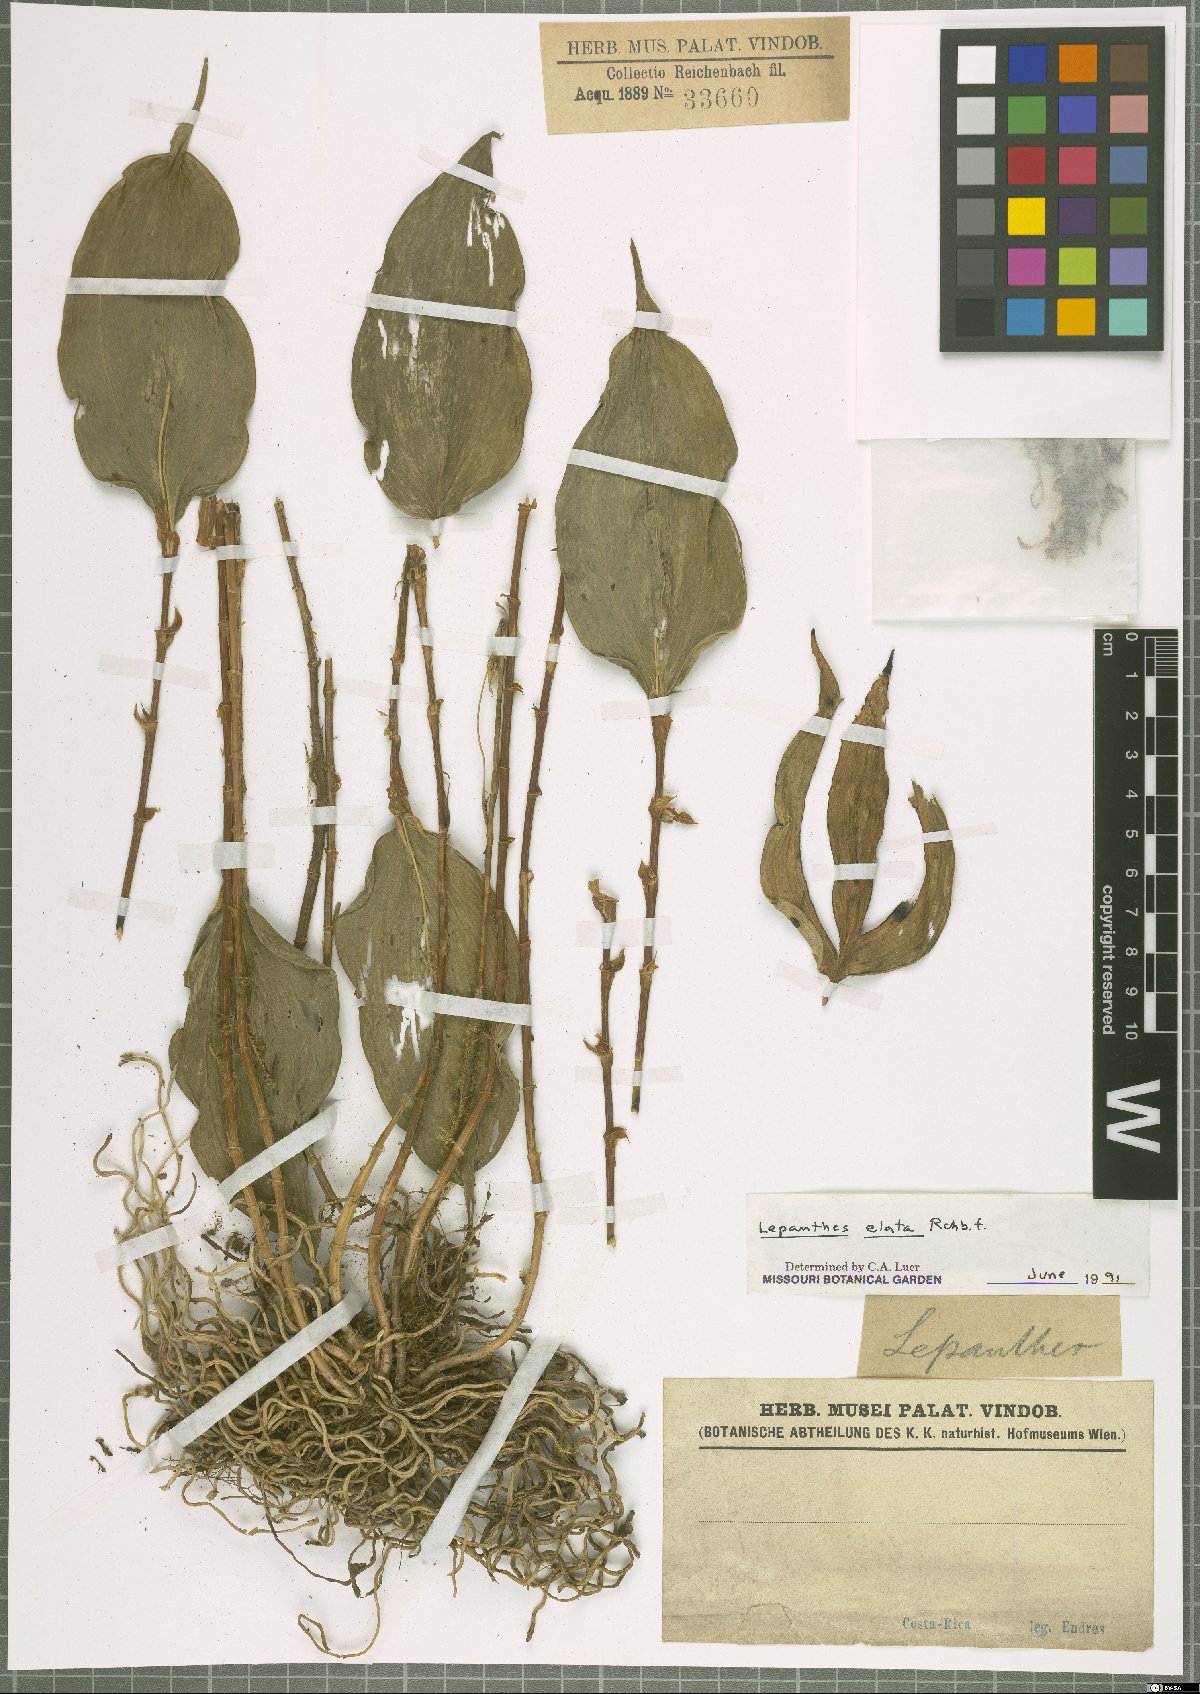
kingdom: Plantae
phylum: Tracheophyta
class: Liliopsida
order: Asparagales
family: Orchidaceae
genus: Lepanthes
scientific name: Lepanthes elata
